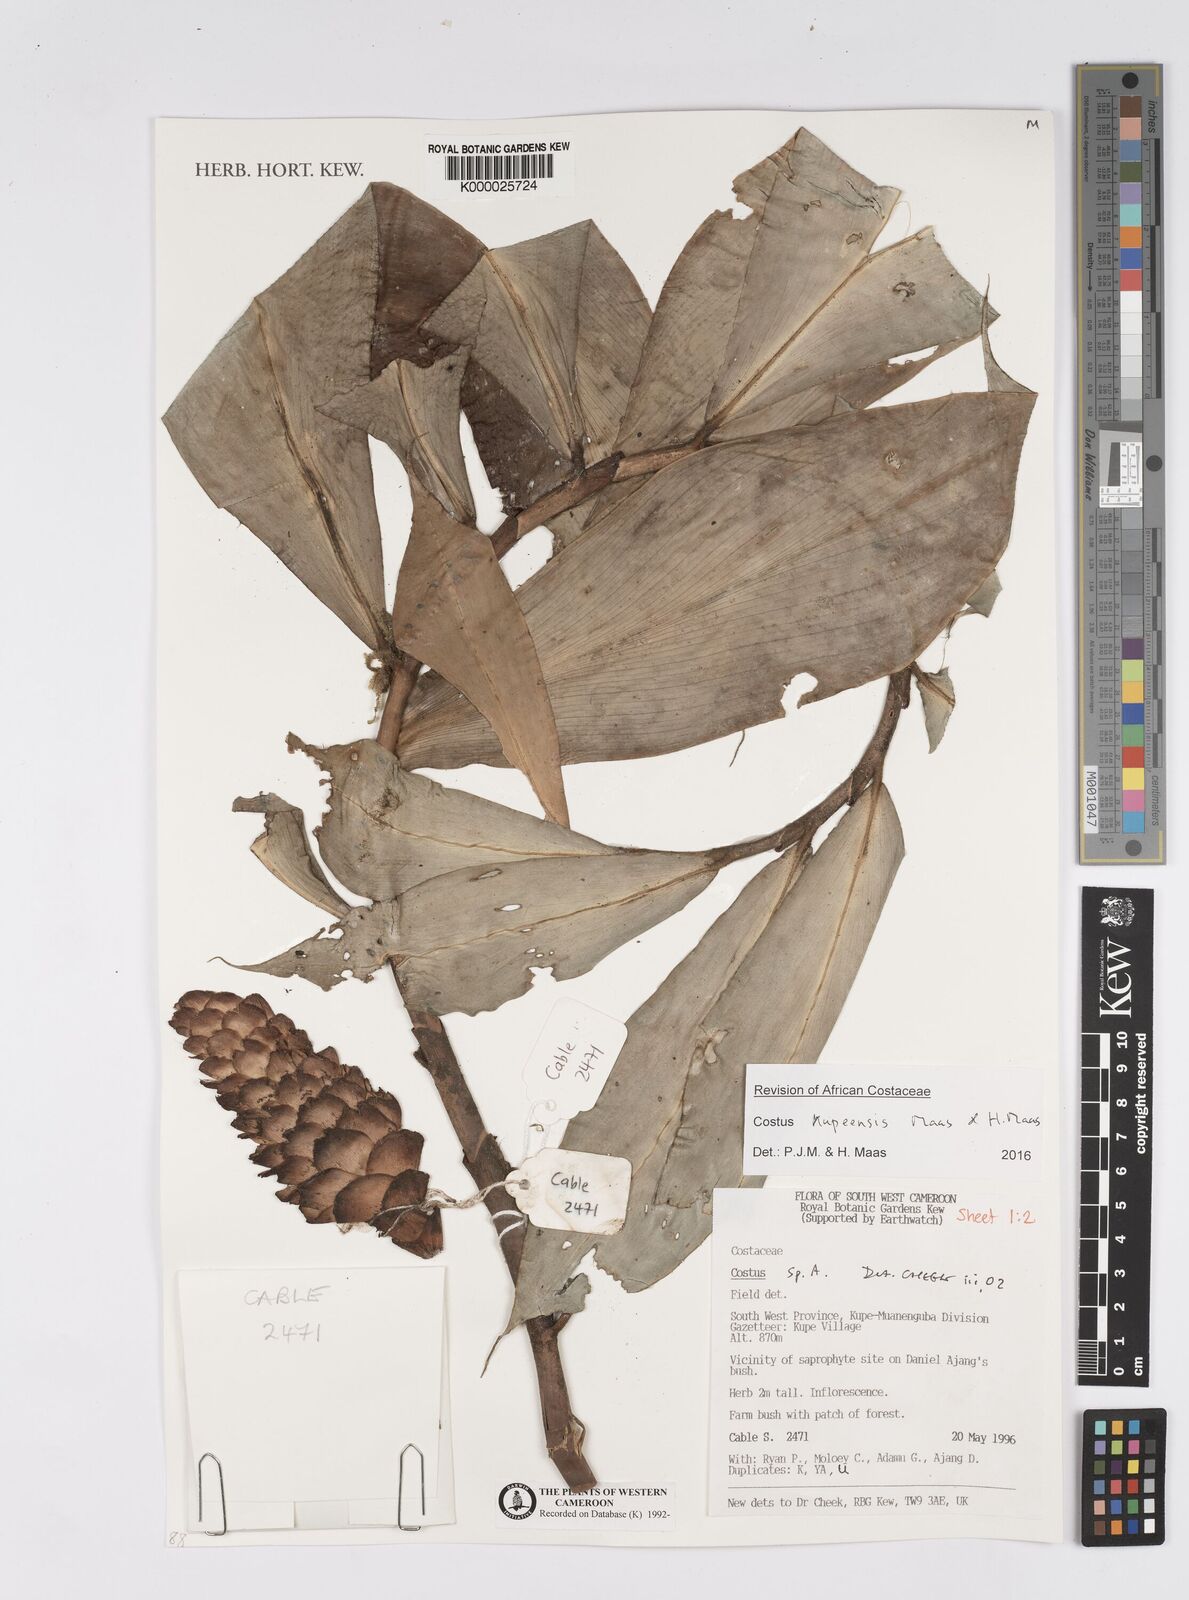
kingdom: Plantae
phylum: Tracheophyta
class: Liliopsida
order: Zingiberales
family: Costaceae
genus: Costus
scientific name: Costus
